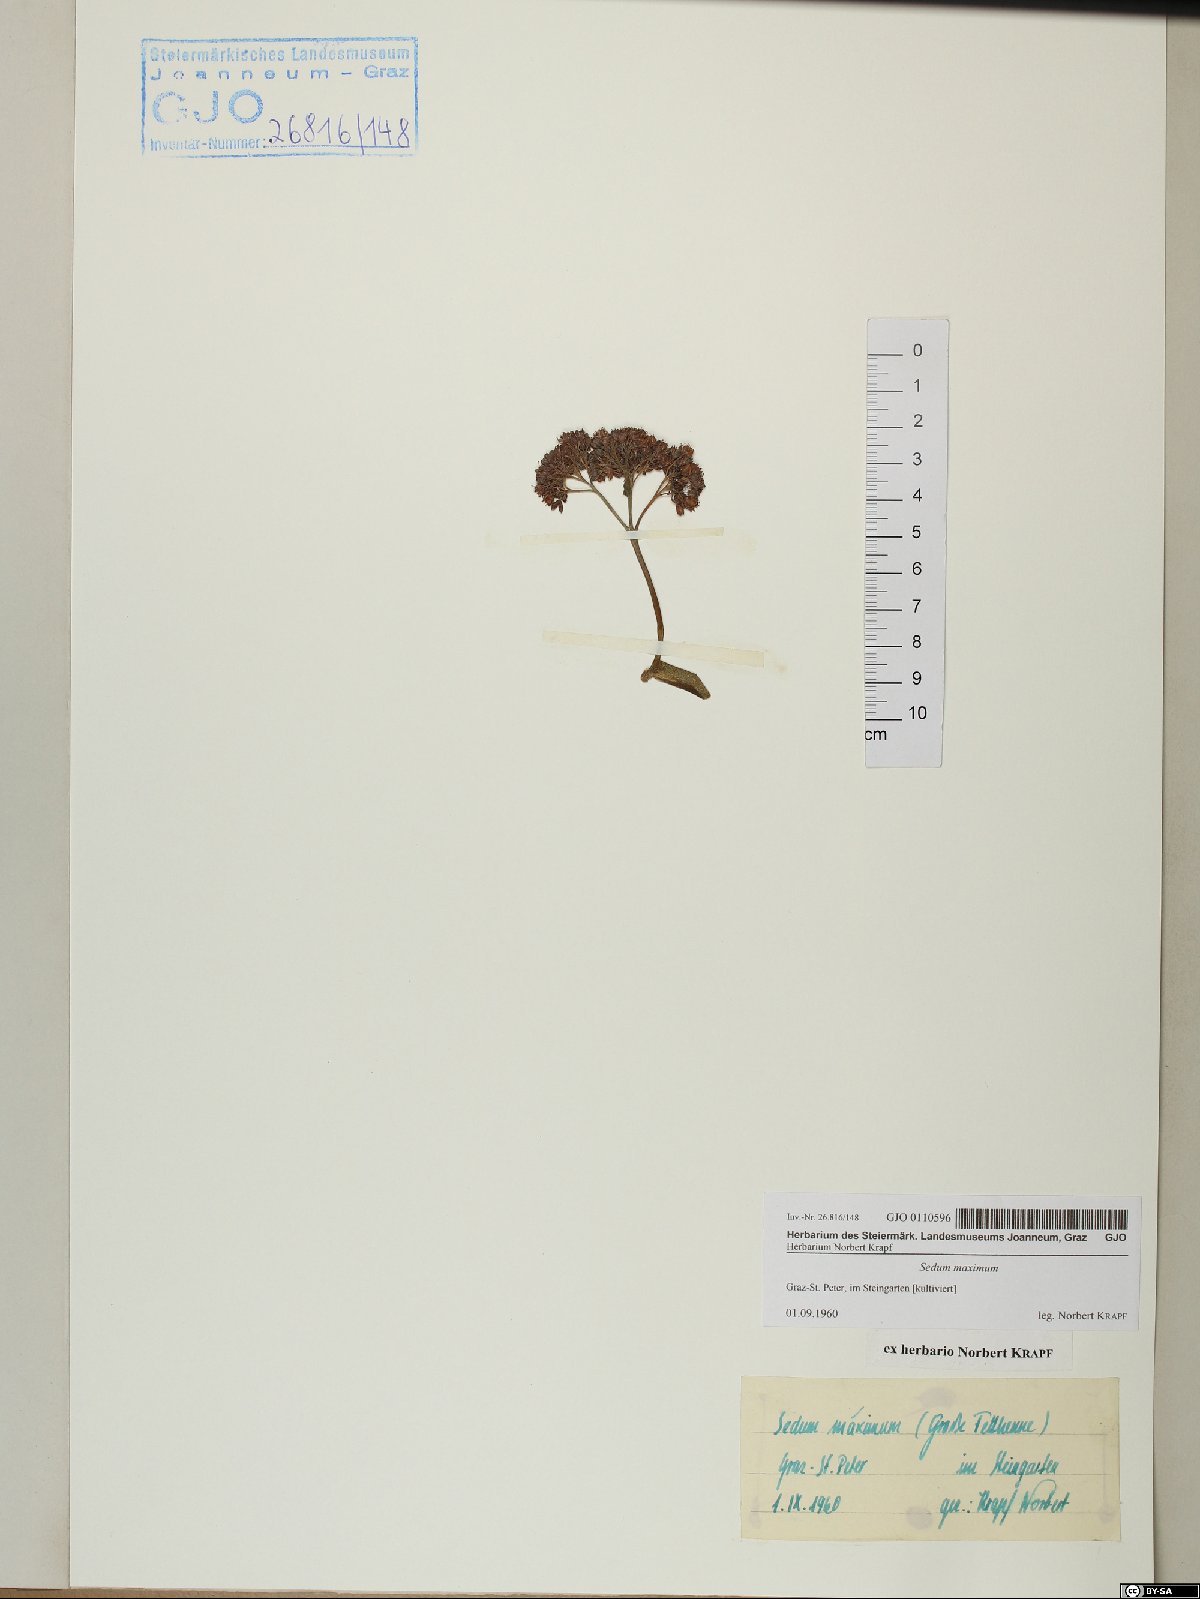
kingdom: Plantae
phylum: Tracheophyta
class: Magnoliopsida
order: Saxifragales
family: Crassulaceae
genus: Hylotelephium
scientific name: Hylotelephium maximum
